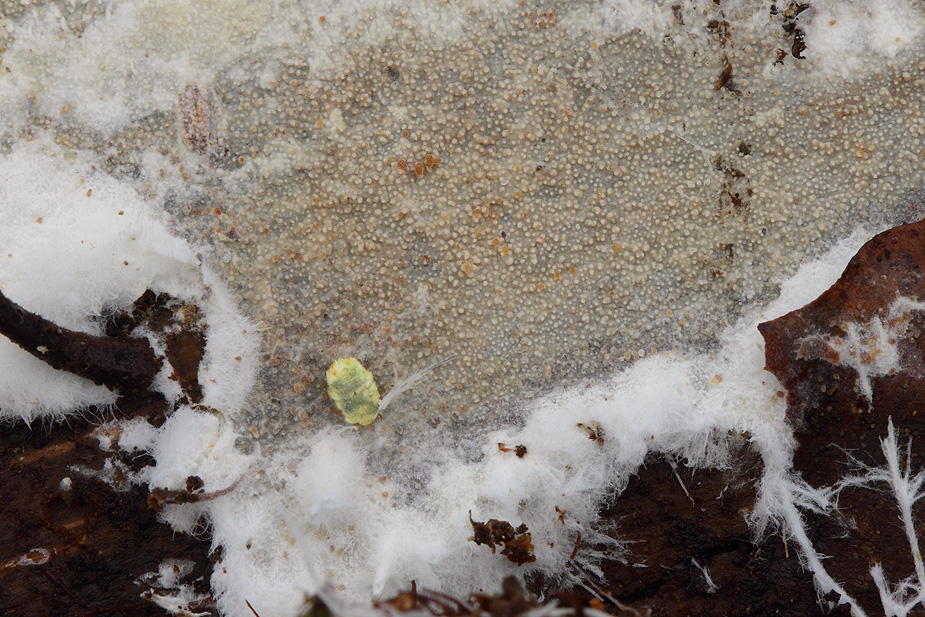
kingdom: Fungi
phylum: Basidiomycota
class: Agaricomycetes
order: Hymenochaetales
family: Rickenellaceae
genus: Resinicium
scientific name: Resinicium bicolor
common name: almindelig vokstand
